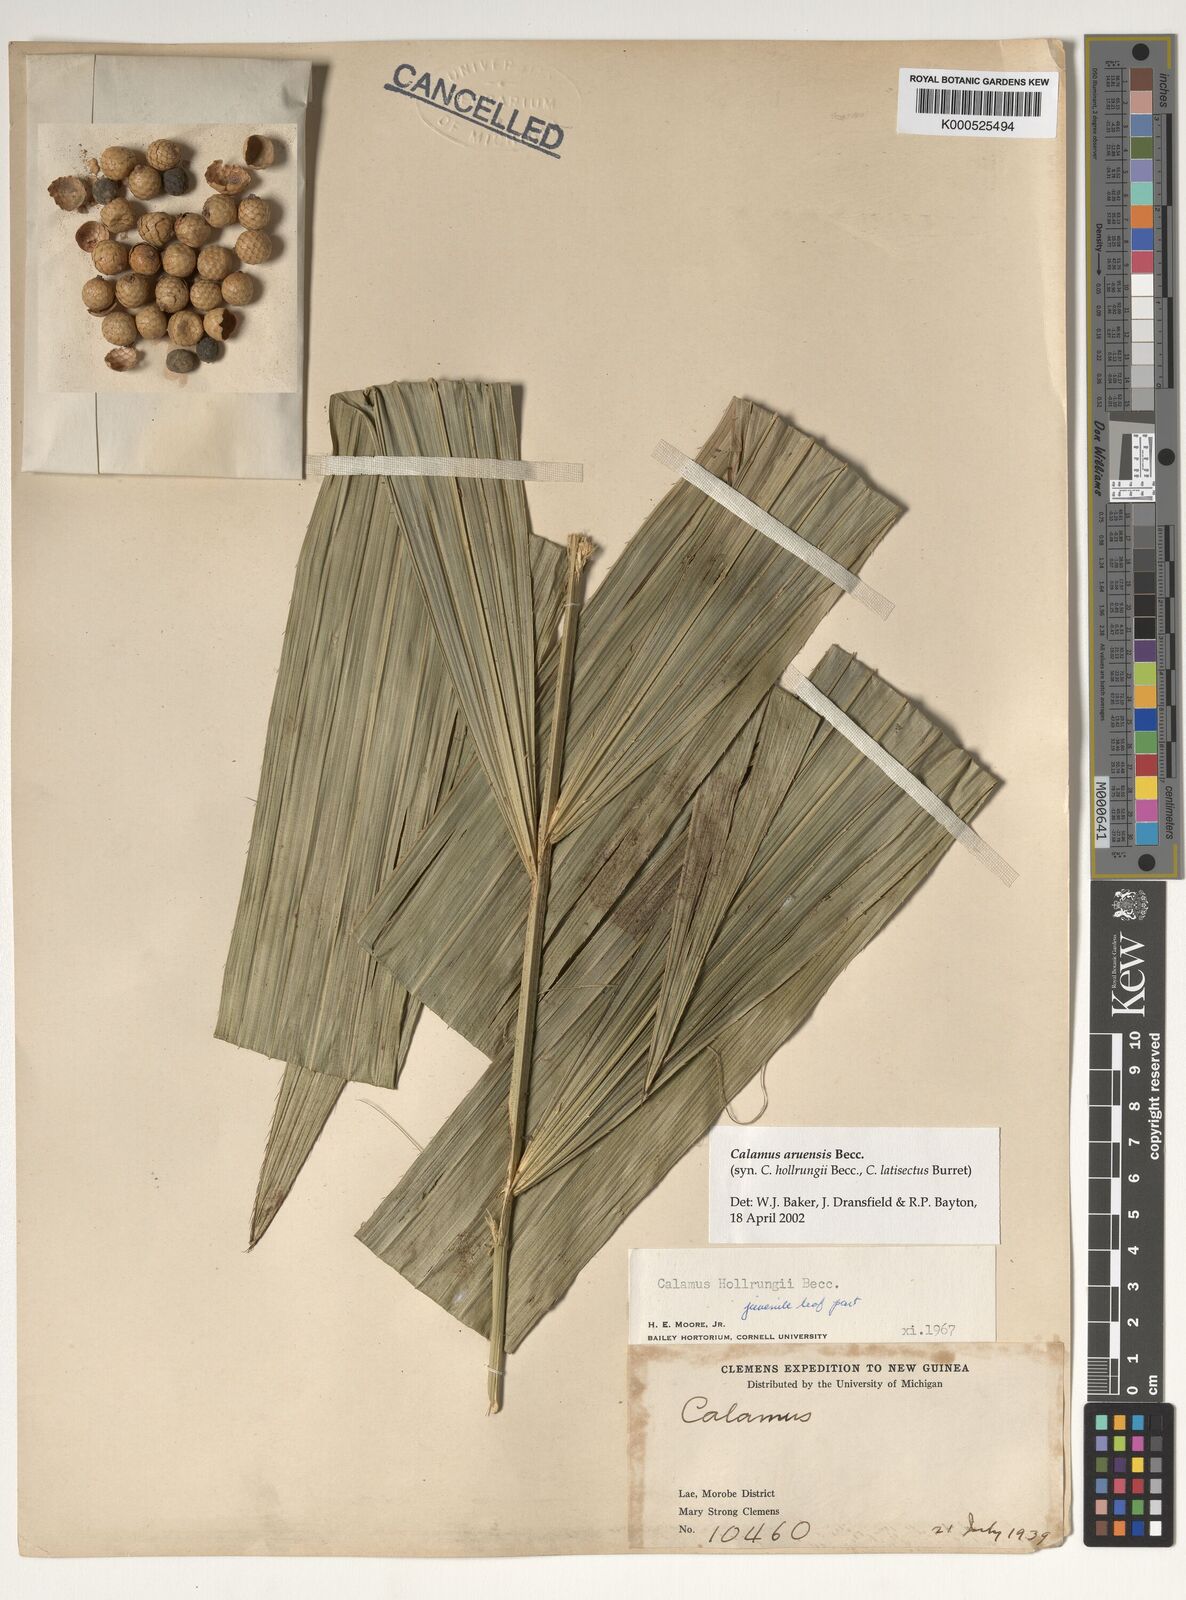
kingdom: Plantae
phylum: Tracheophyta
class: Liliopsida
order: Arecales
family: Arecaceae
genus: Calamus
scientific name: Calamus aruensis
